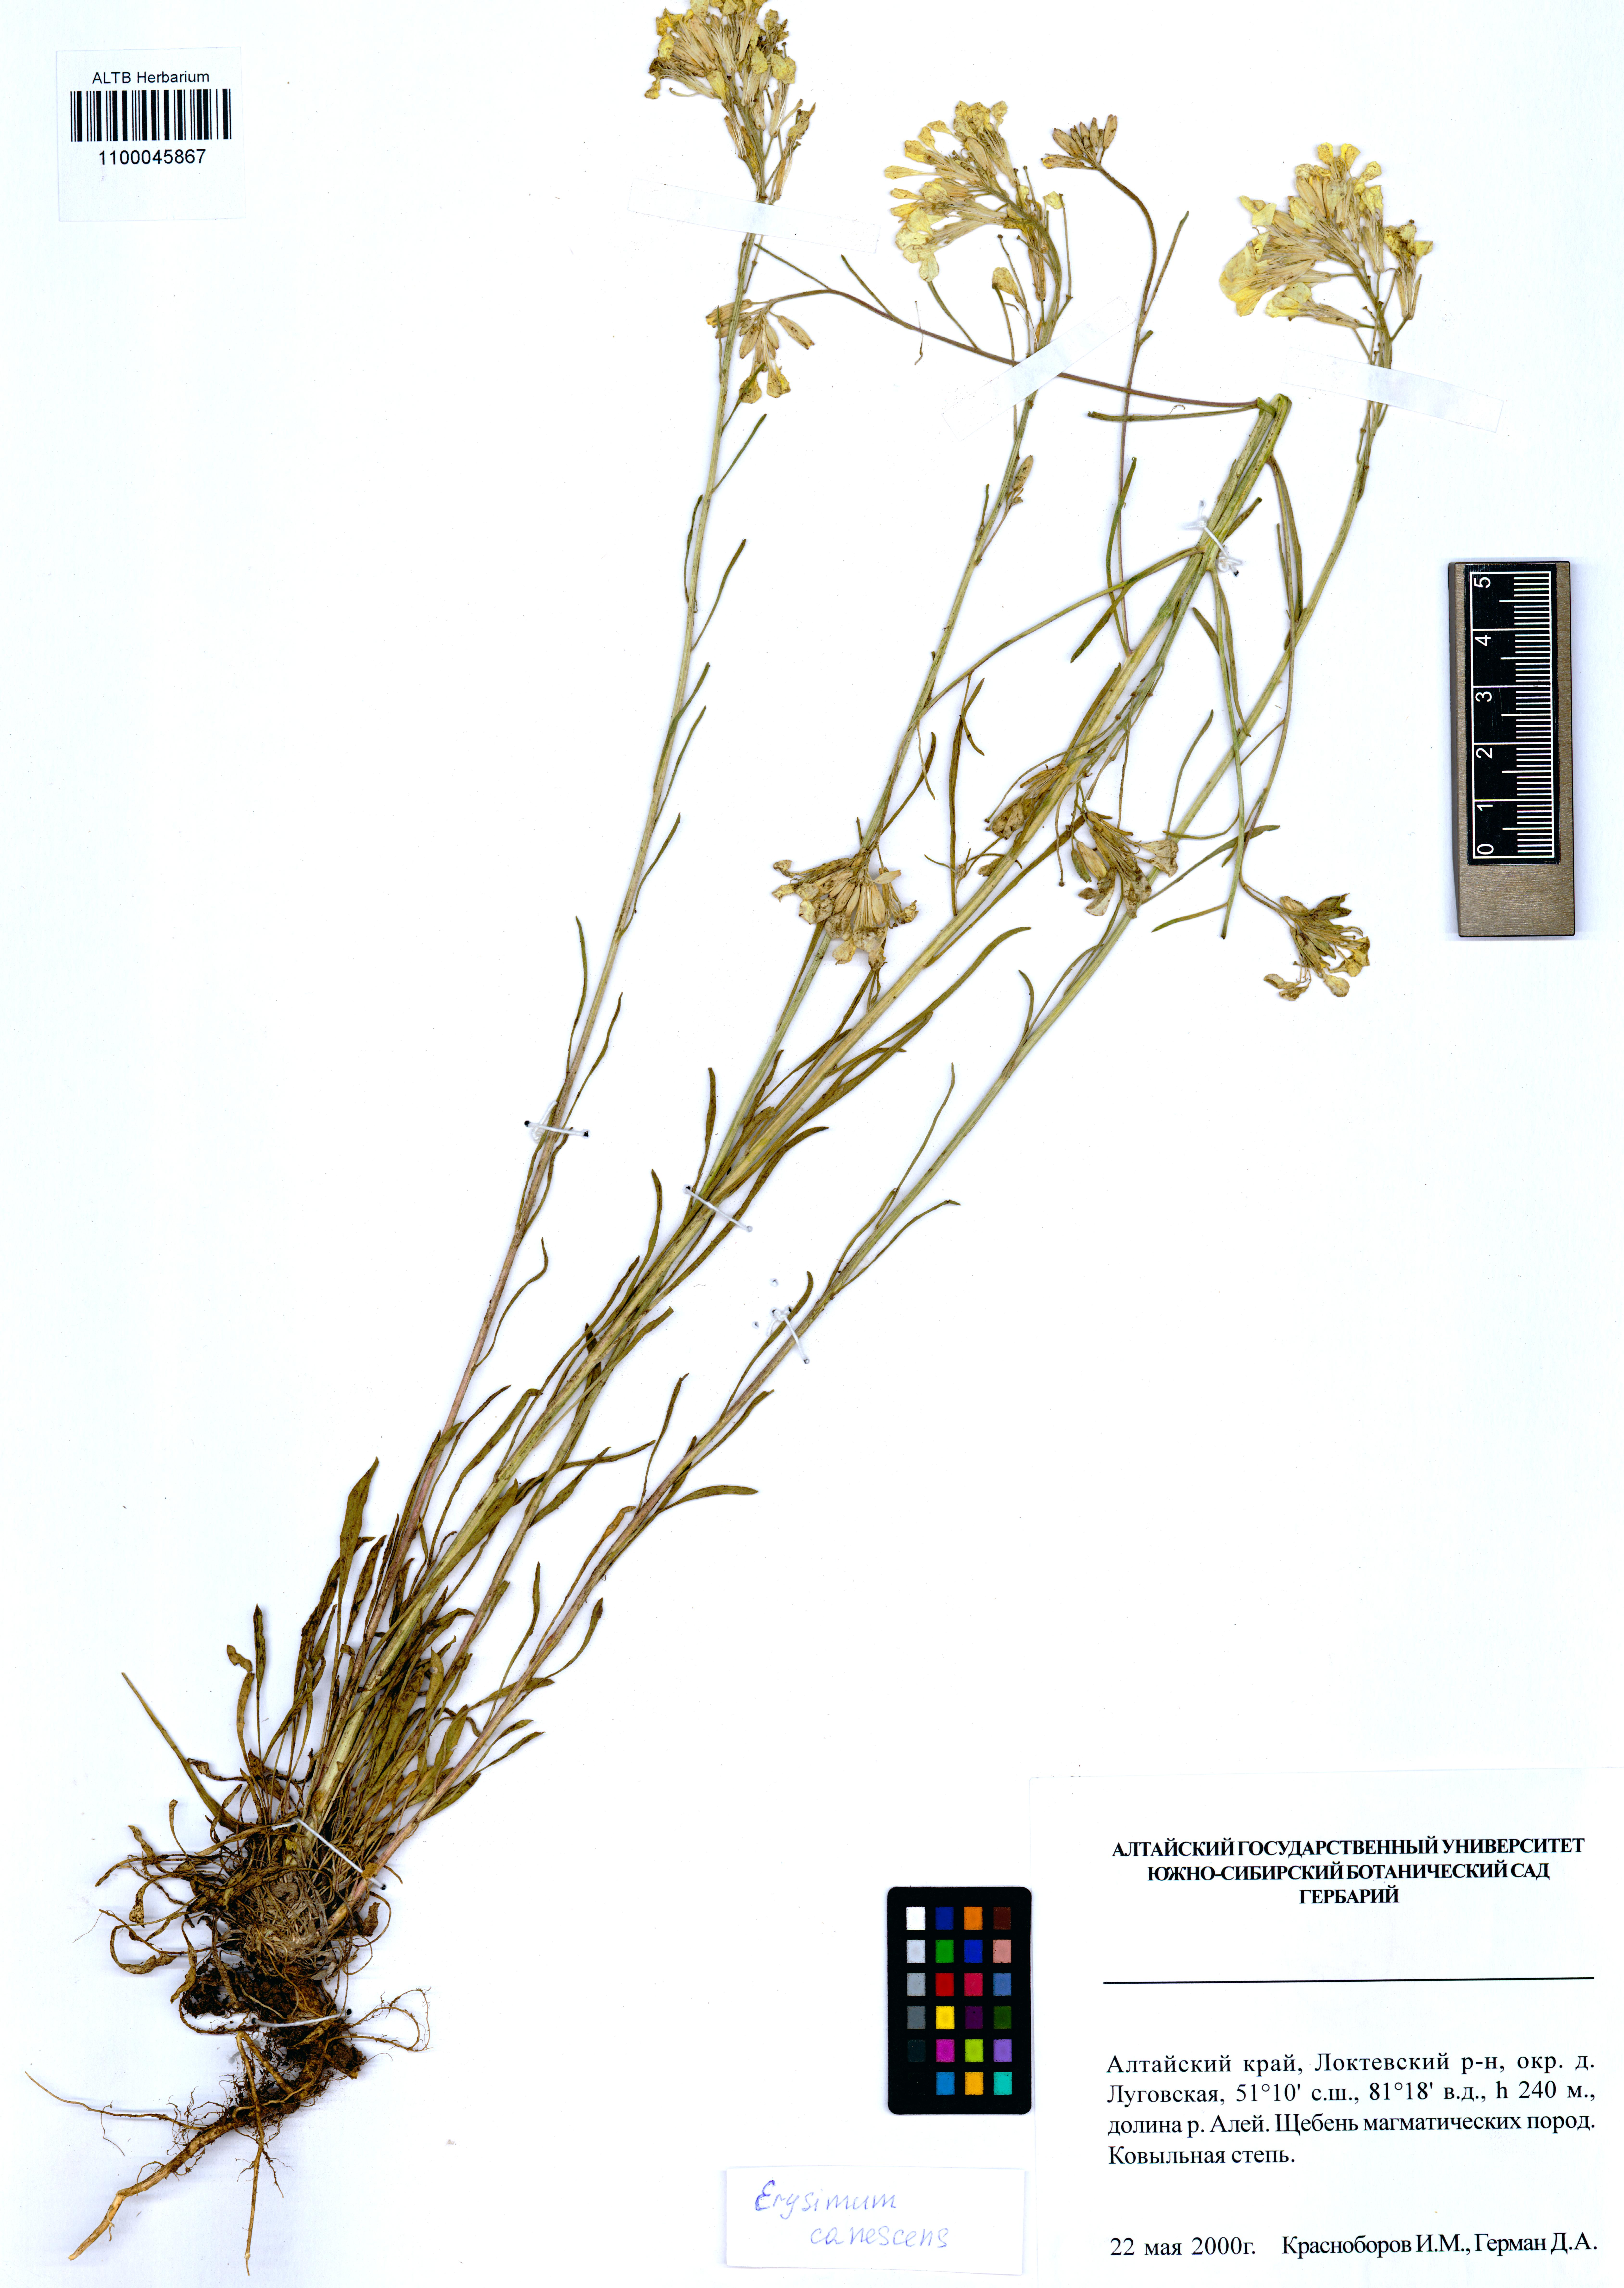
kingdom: Plantae
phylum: Tracheophyta
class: Magnoliopsida
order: Brassicales
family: Brassicaceae
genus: Erysimum
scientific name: Erysimum canescens
